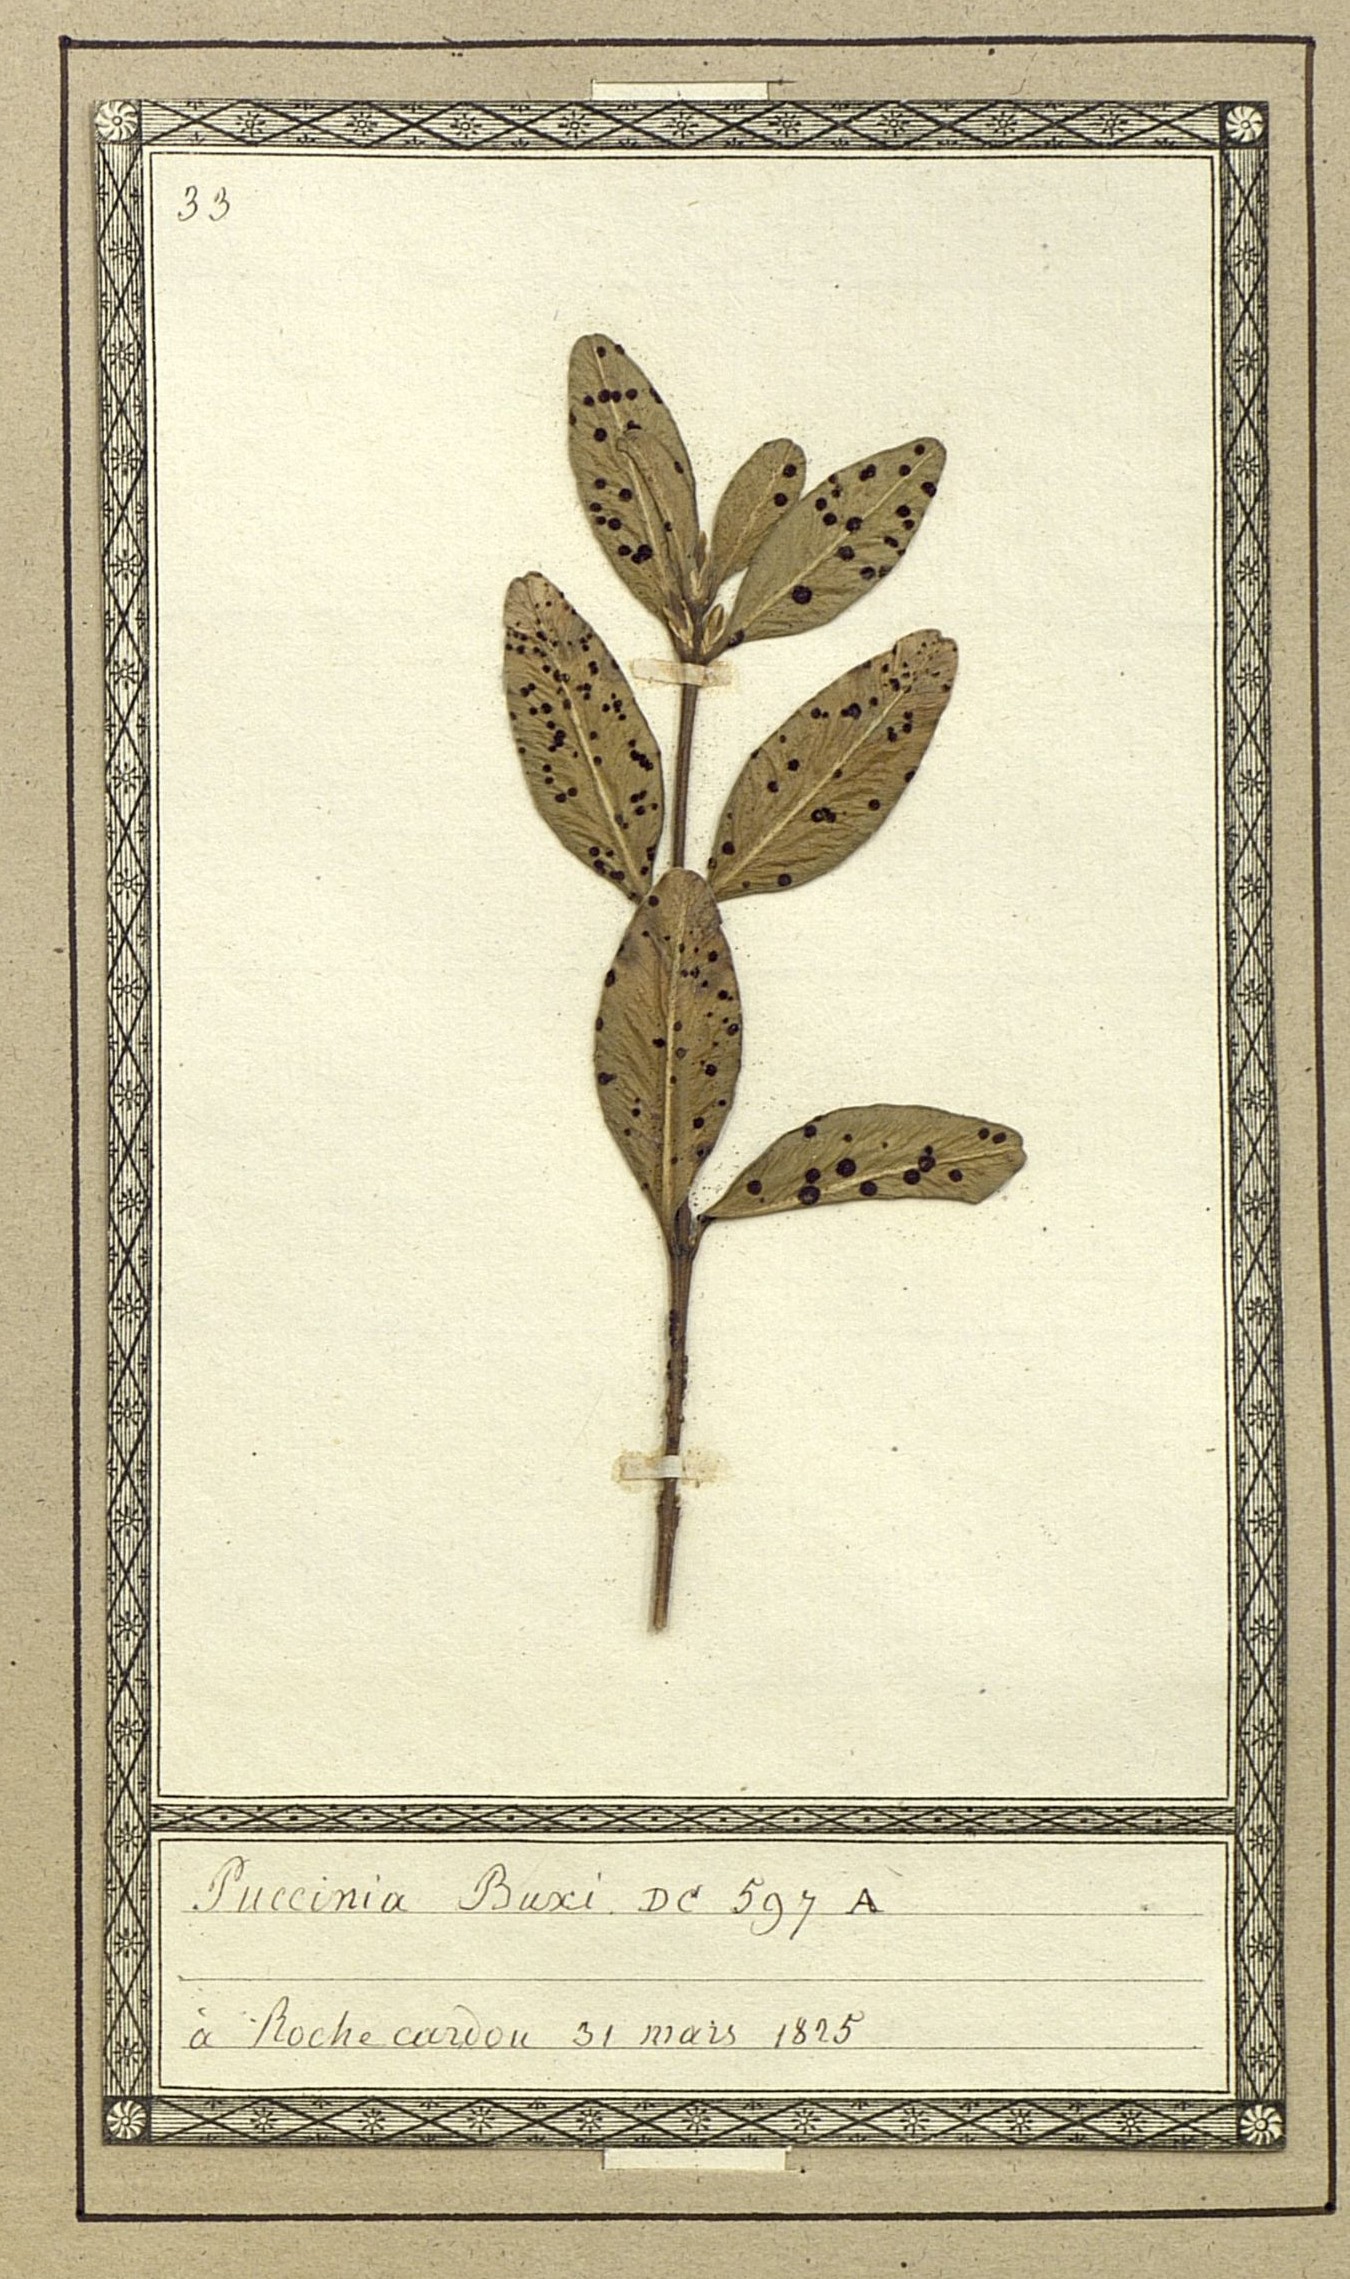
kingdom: Fungi
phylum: Basidiomycota
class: Pucciniomycetes
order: Pucciniales
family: Pucciniaceae
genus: Puccinia
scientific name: Puccinia buxi
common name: Box rust
